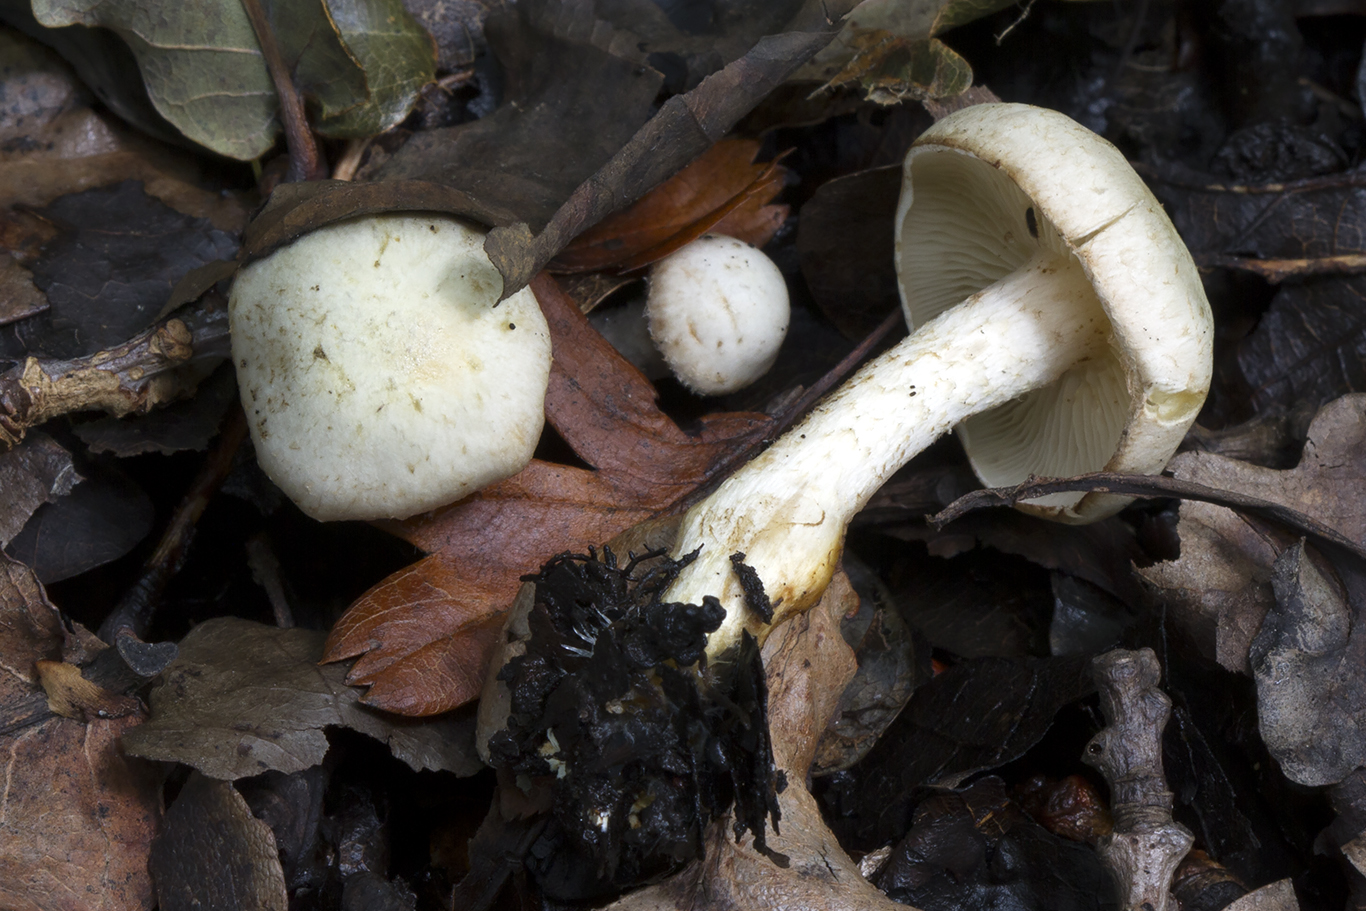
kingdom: Fungi
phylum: Basidiomycota
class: Agaricomycetes
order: Agaricales
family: Strophariaceae
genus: Pholiota
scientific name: Pholiota gummosa
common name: grøngul skælhat
